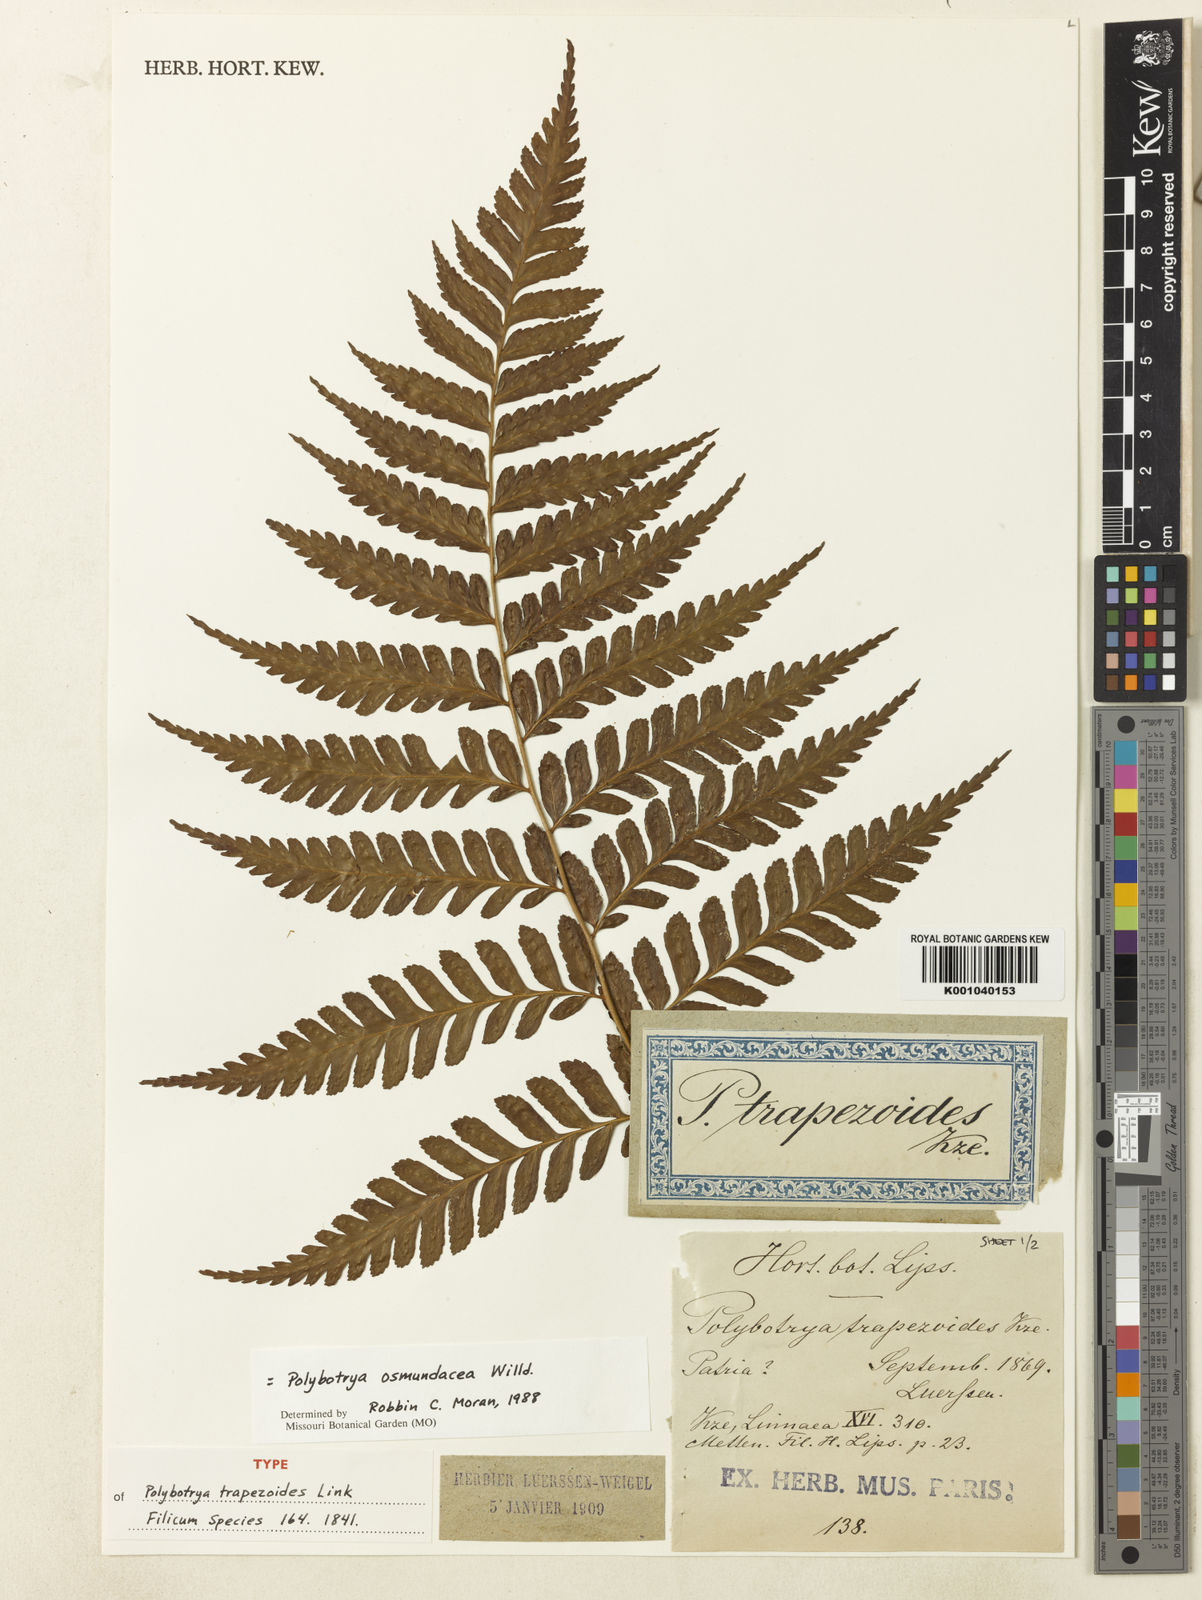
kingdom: Plantae
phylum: Tracheophyta
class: Polypodiopsida
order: Polypodiales
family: Dryopteridaceae
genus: Polybotrya
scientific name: Polybotrya osmundacea
